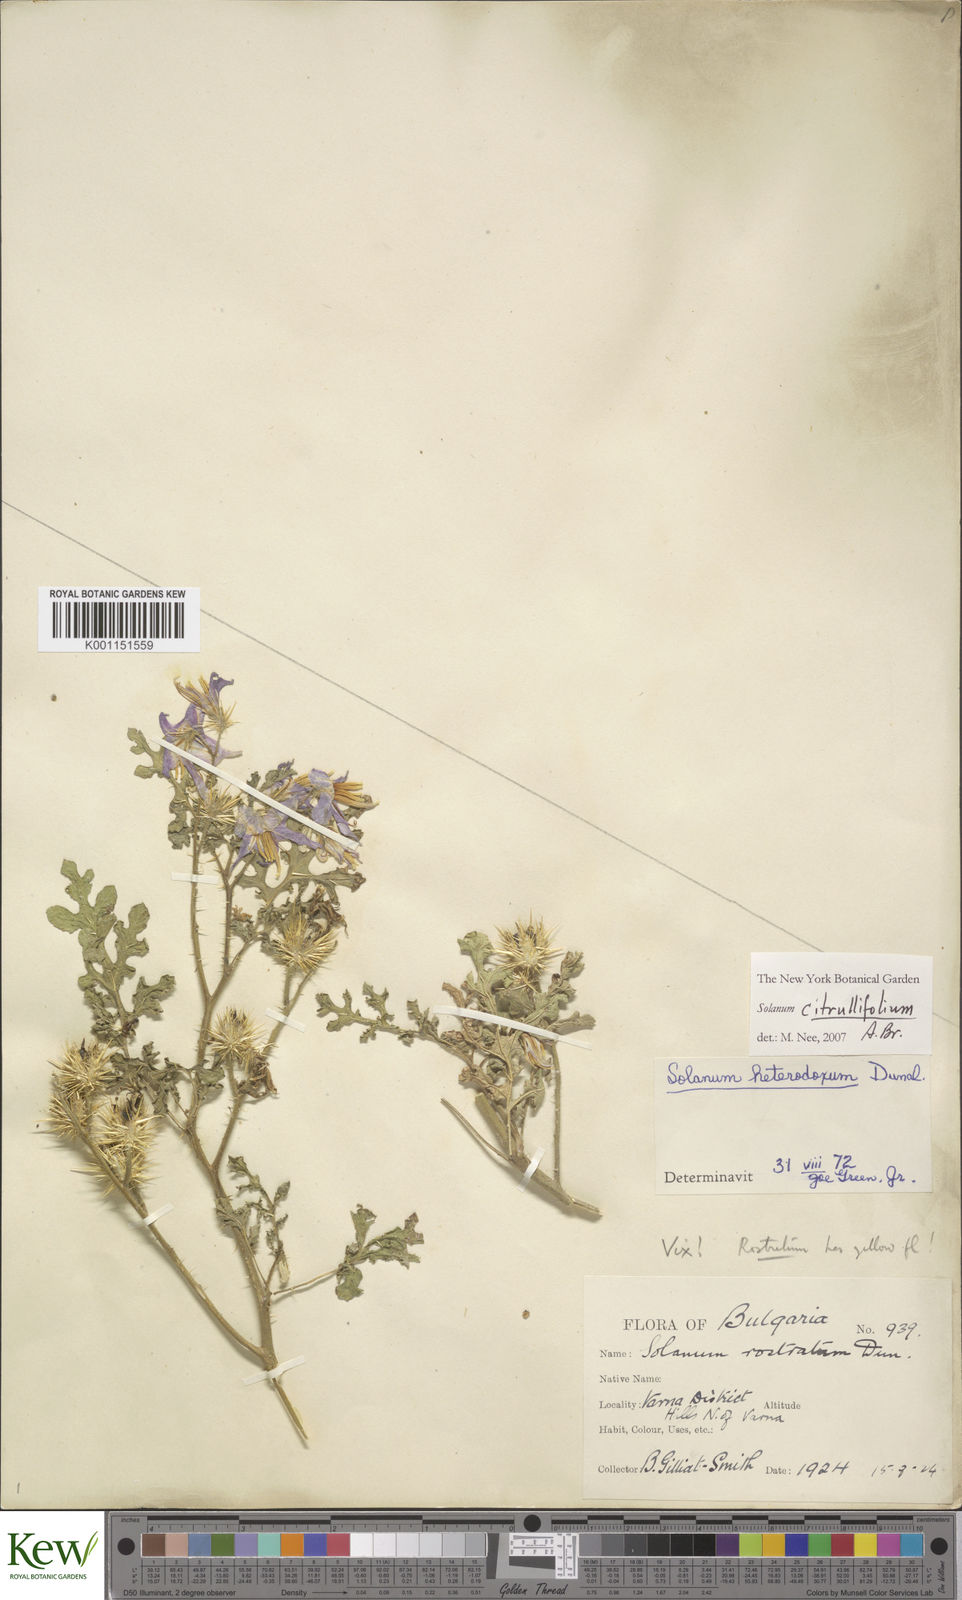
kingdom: Plantae
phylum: Tracheophyta
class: Magnoliopsida
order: Solanales
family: Solanaceae
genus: Solanum
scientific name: Solanum citrullifolium
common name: Melon-leaf nightshade
